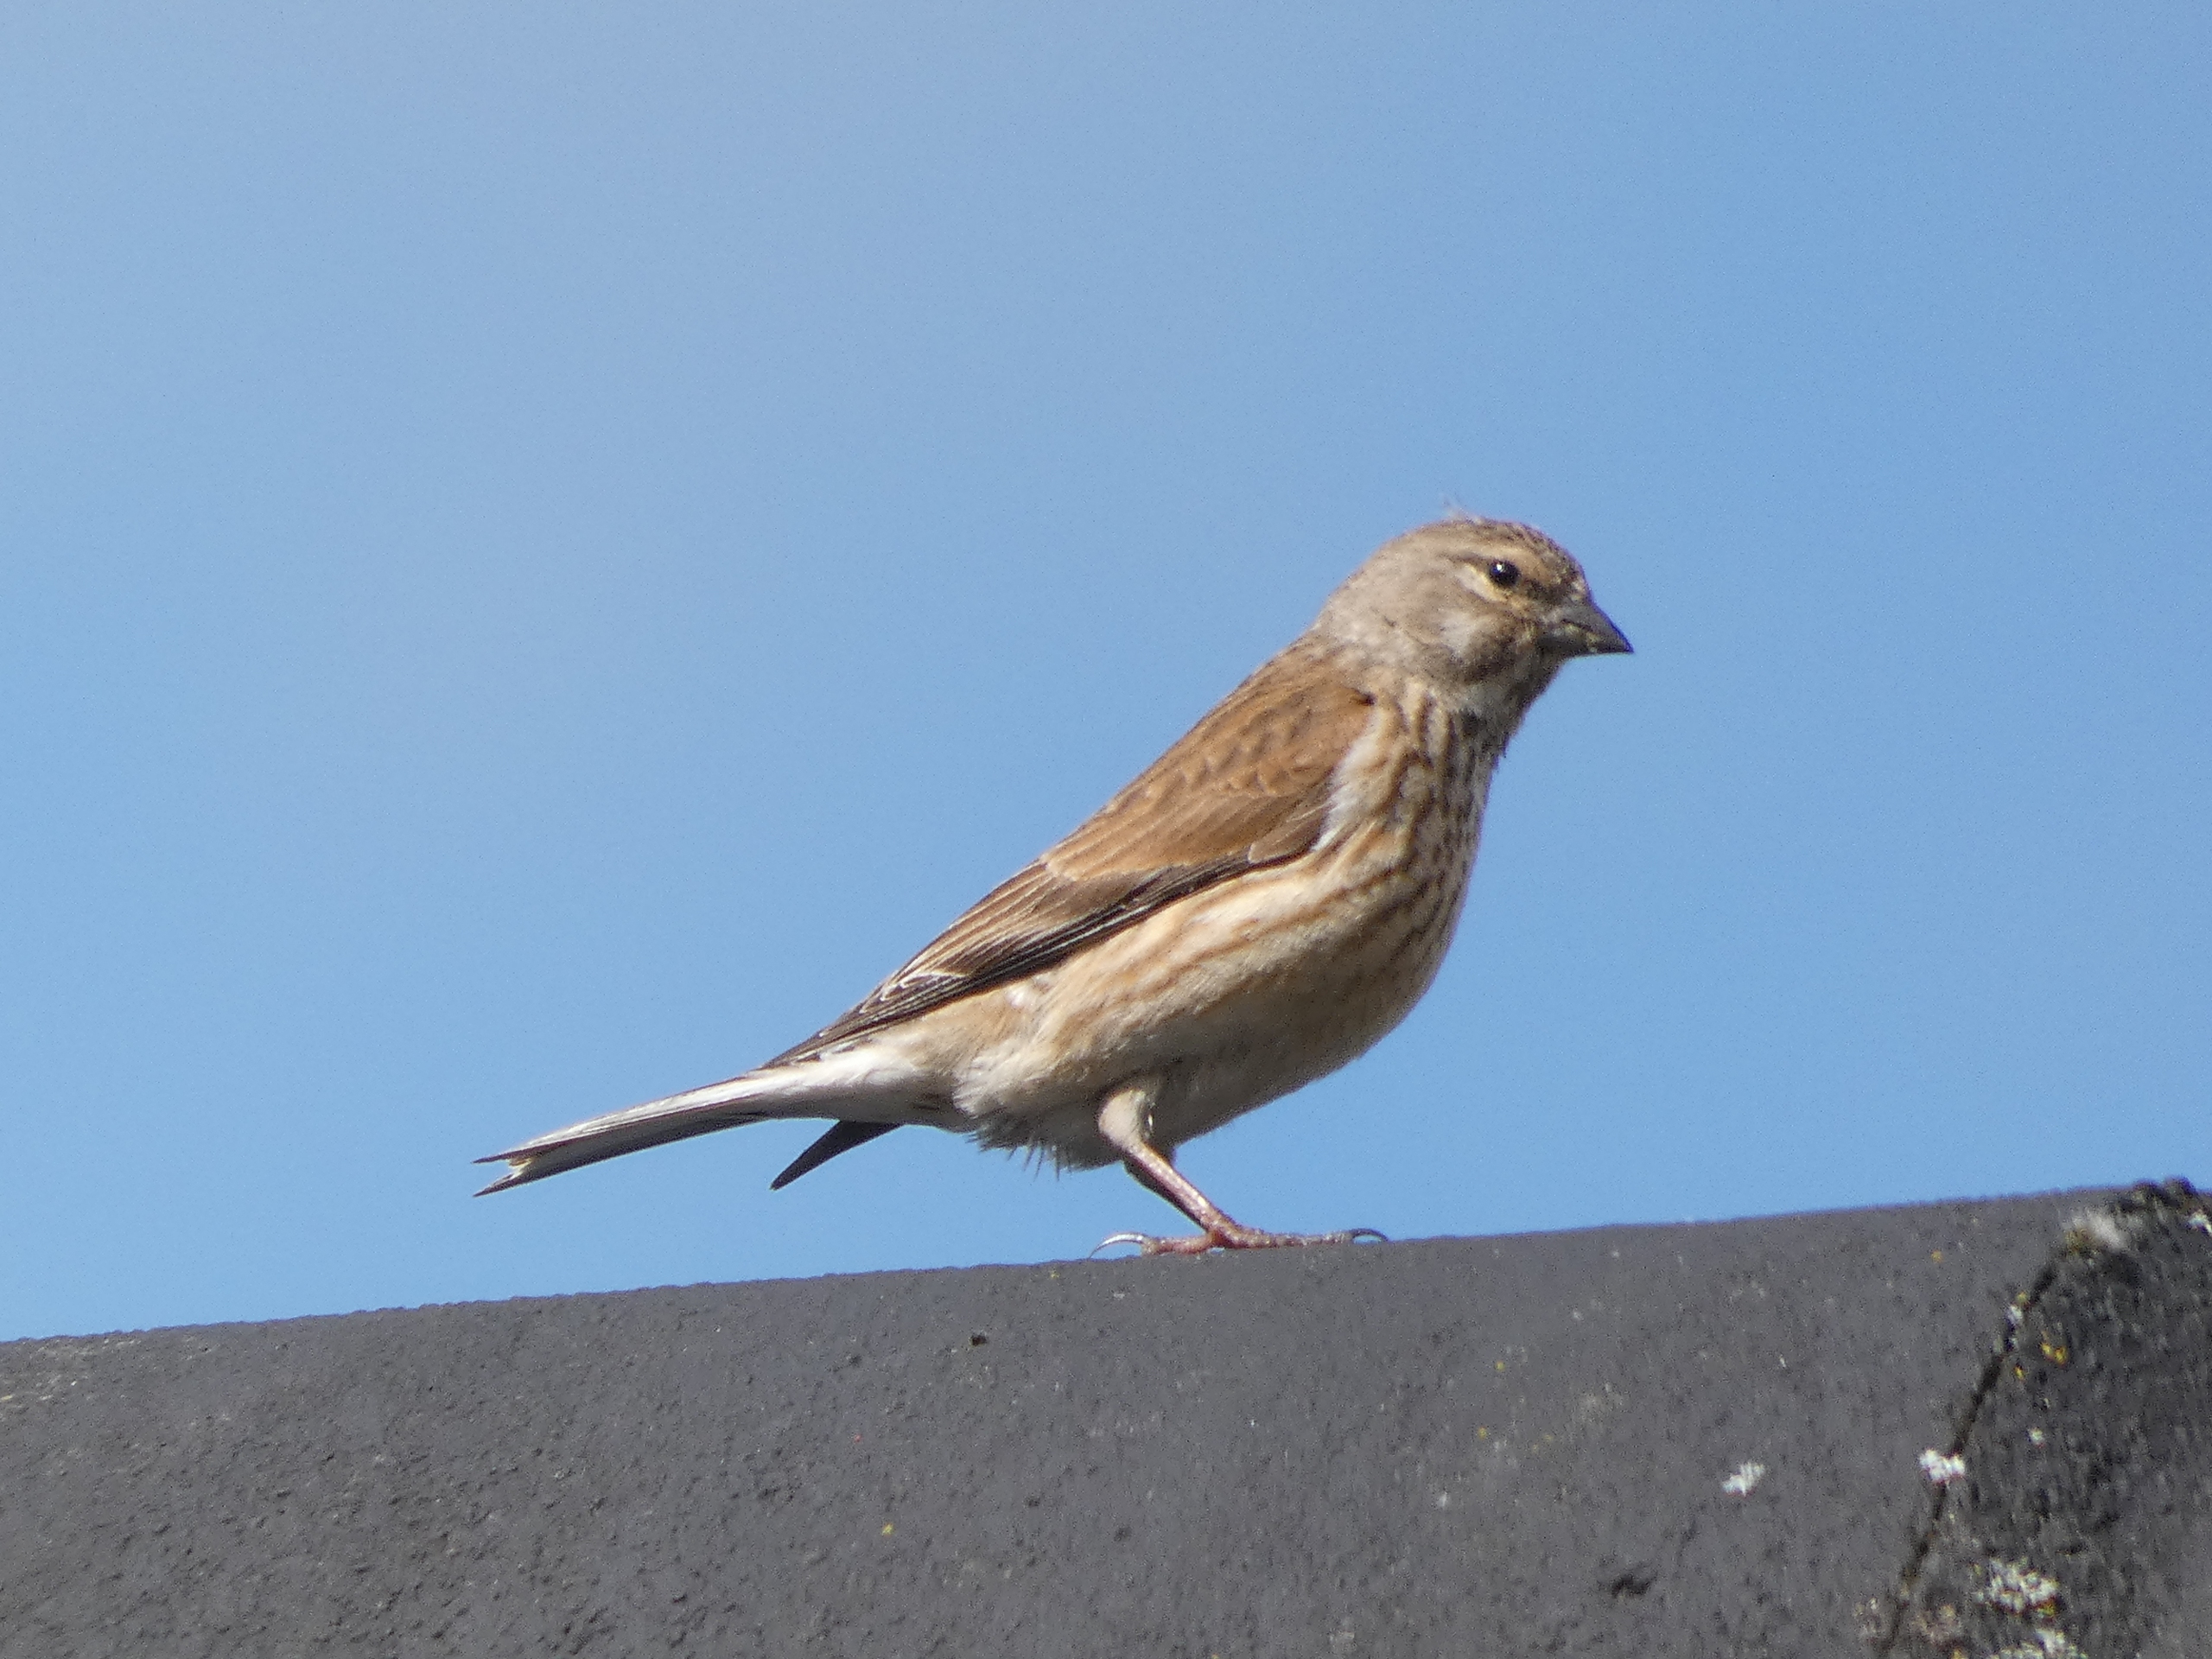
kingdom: Animalia
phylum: Chordata
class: Aves
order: Passeriformes
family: Fringillidae
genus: Linaria
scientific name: Linaria cannabina
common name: Tornirisk
